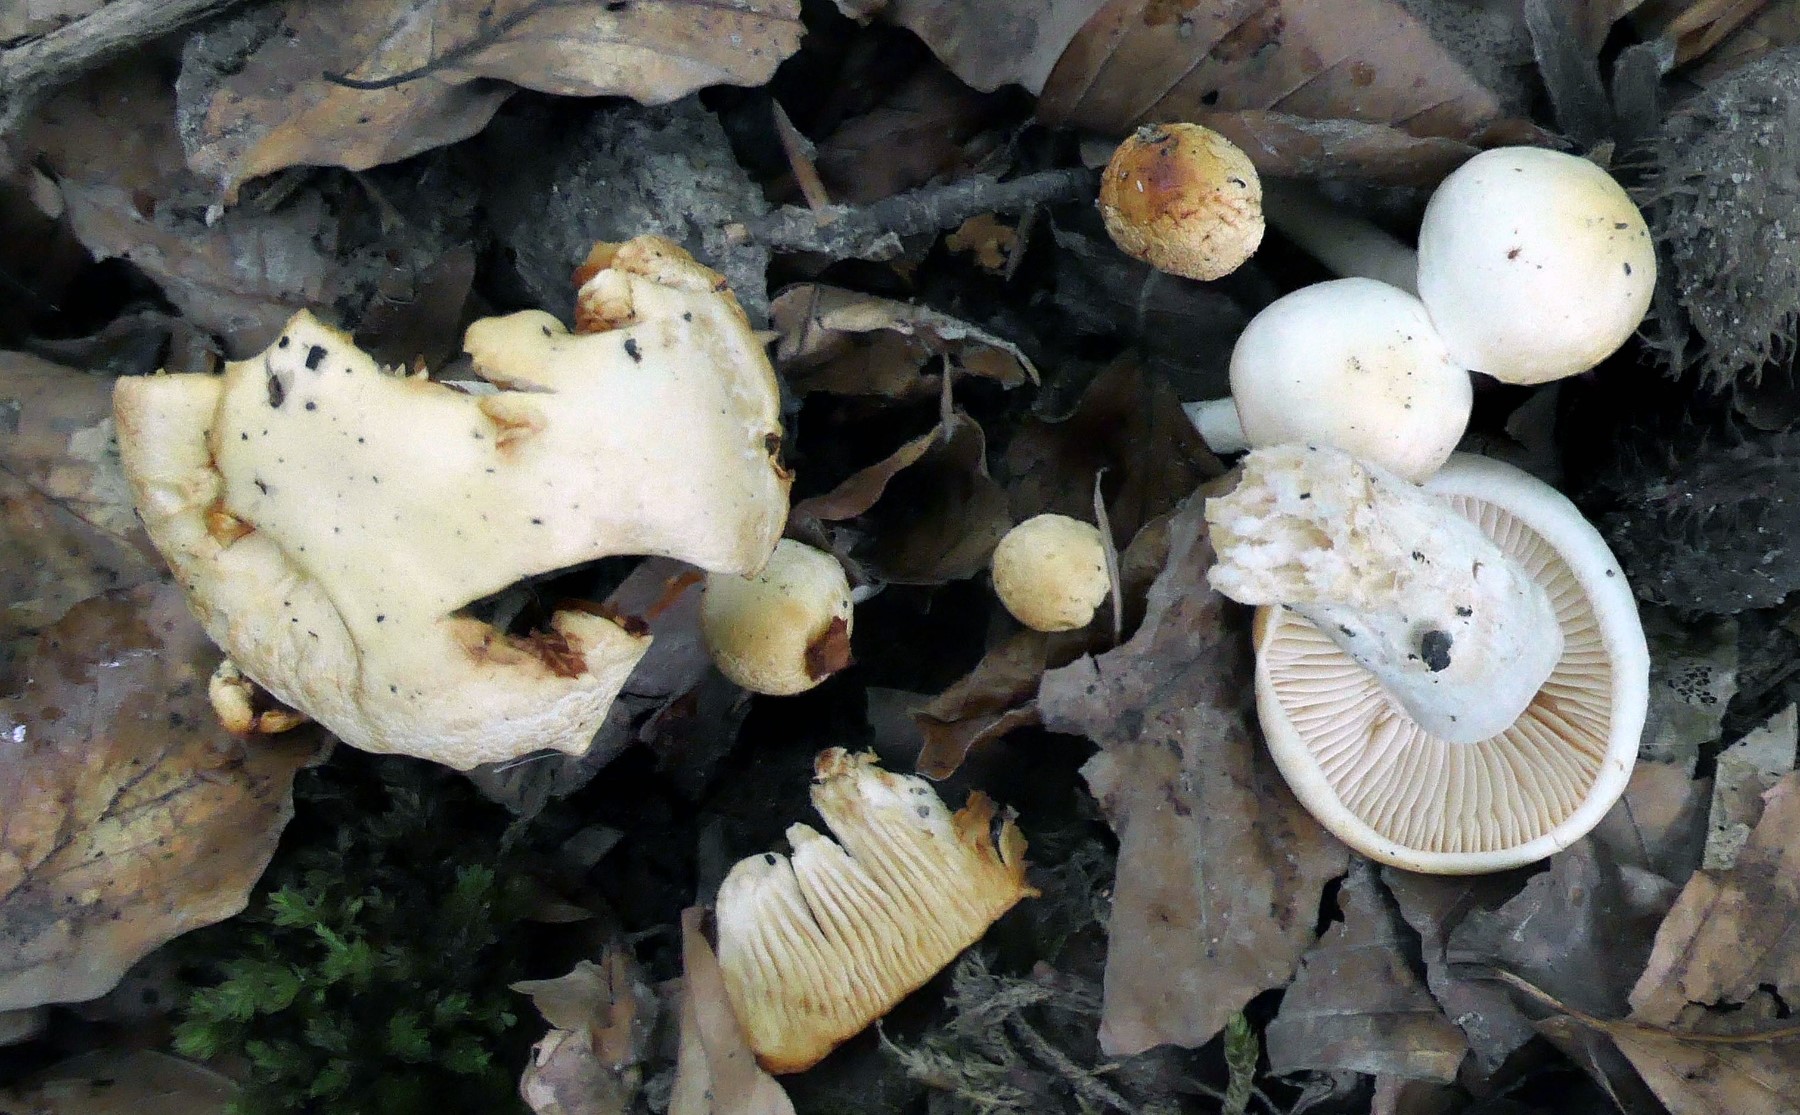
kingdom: Fungi
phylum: Basidiomycota
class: Agaricomycetes
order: Agaricales
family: Hygrophoraceae
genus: Hygrophorus
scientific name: Hygrophorus discoxanthus
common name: ildelugtende sneglehat
